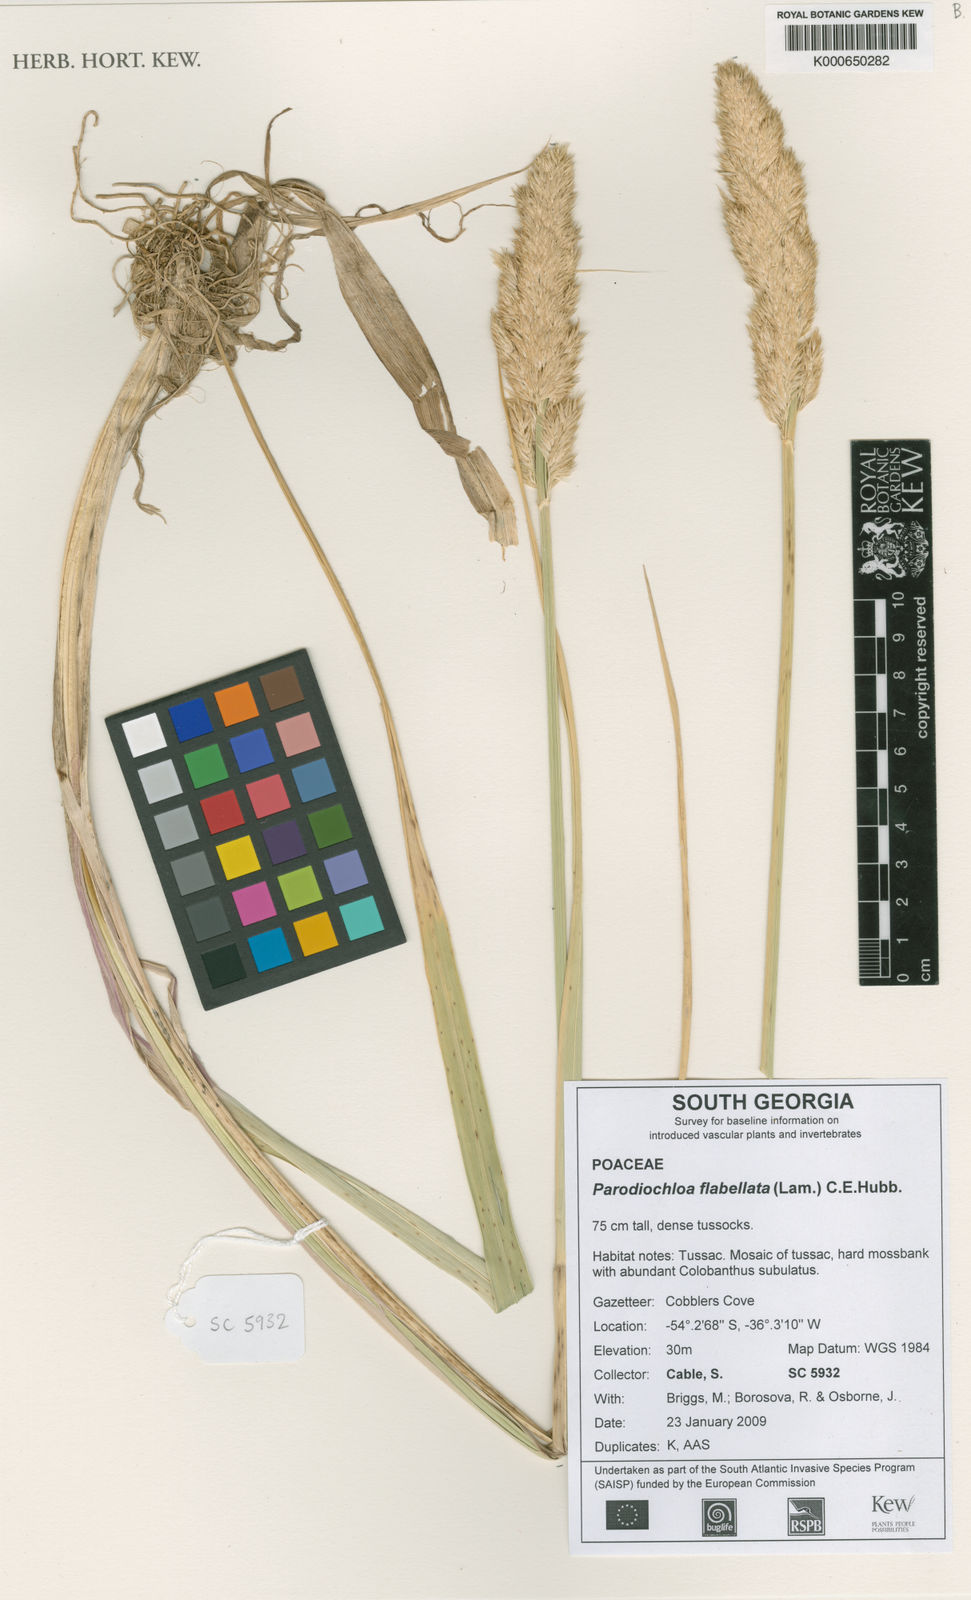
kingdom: Plantae
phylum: Tracheophyta
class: Liliopsida
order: Poales
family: Poaceae
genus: Poa
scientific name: Poa flabellata
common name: Tussac-grass
